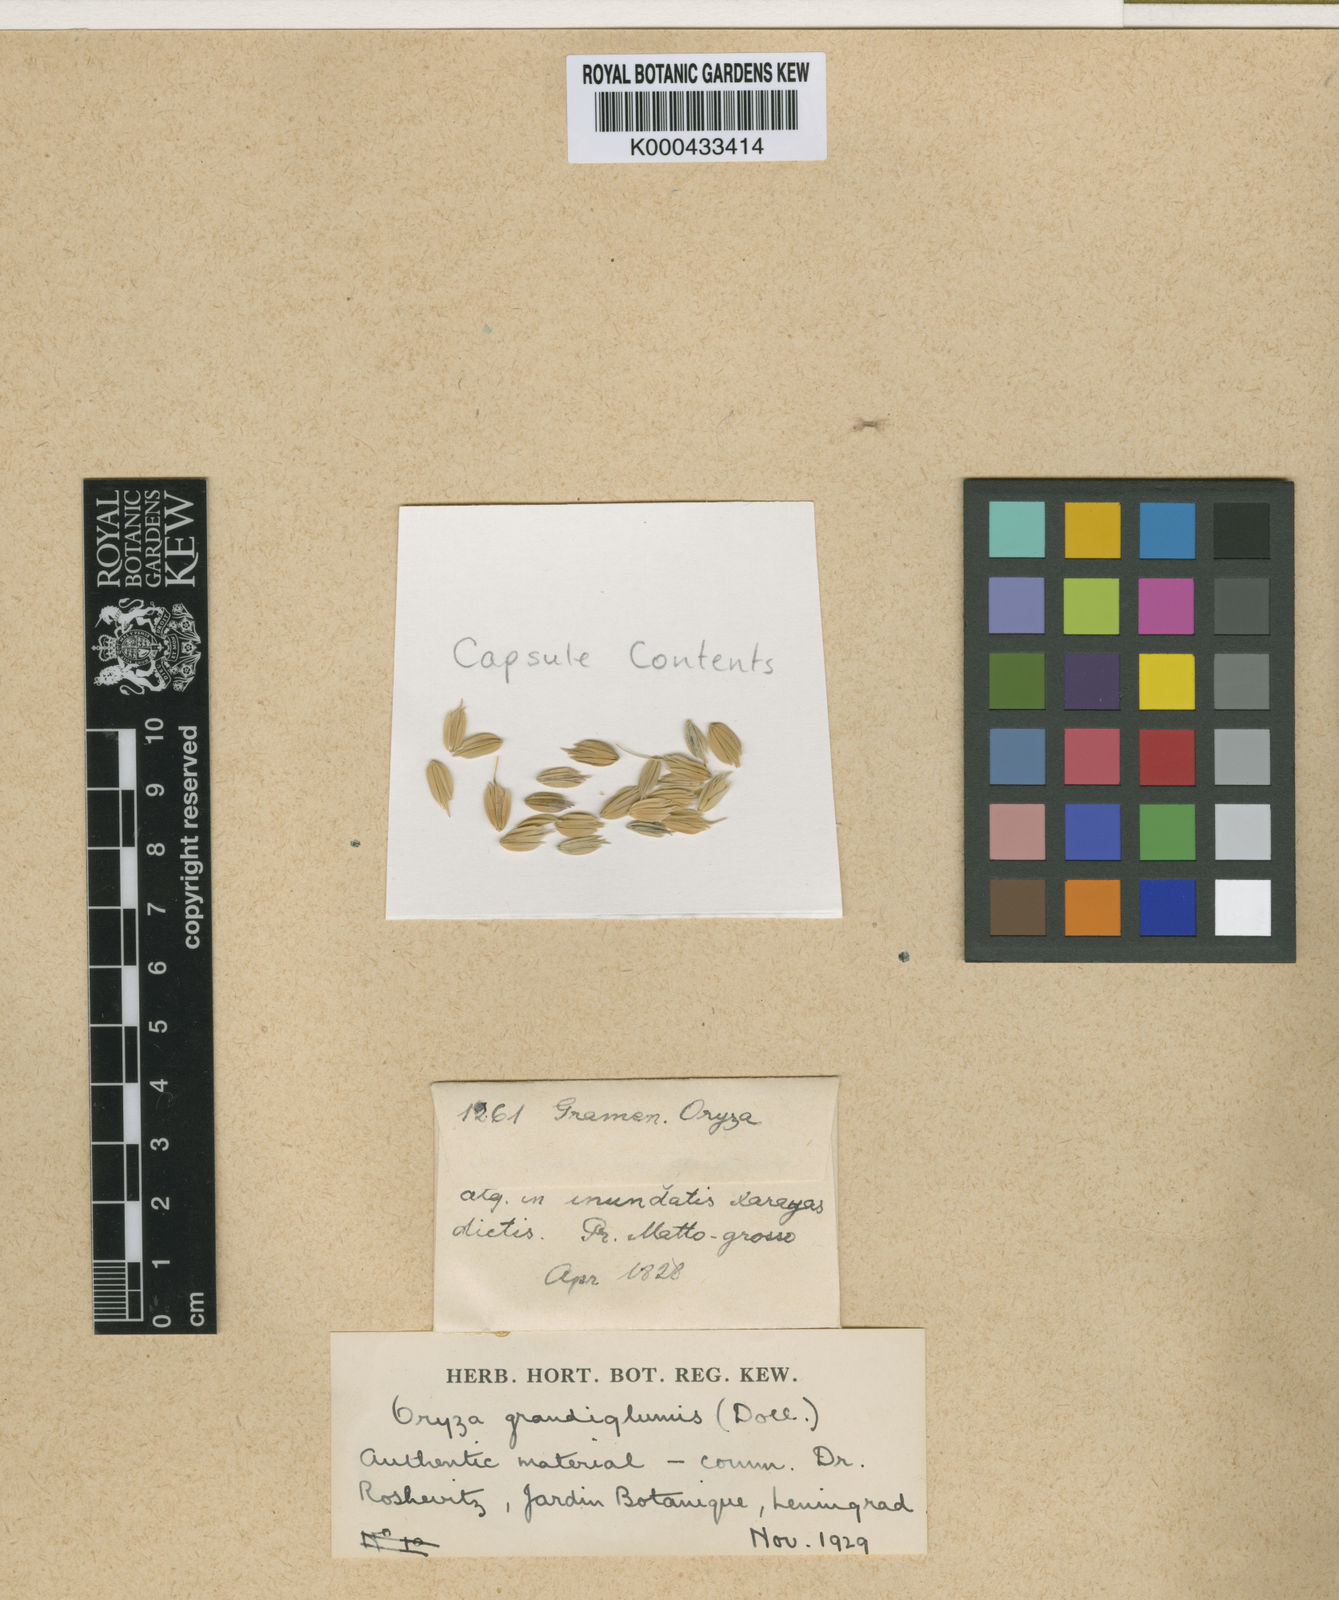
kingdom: Plantae
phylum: Tracheophyta
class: Liliopsida
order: Poales
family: Poaceae
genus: Oryza
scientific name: Oryza grandiglumis
